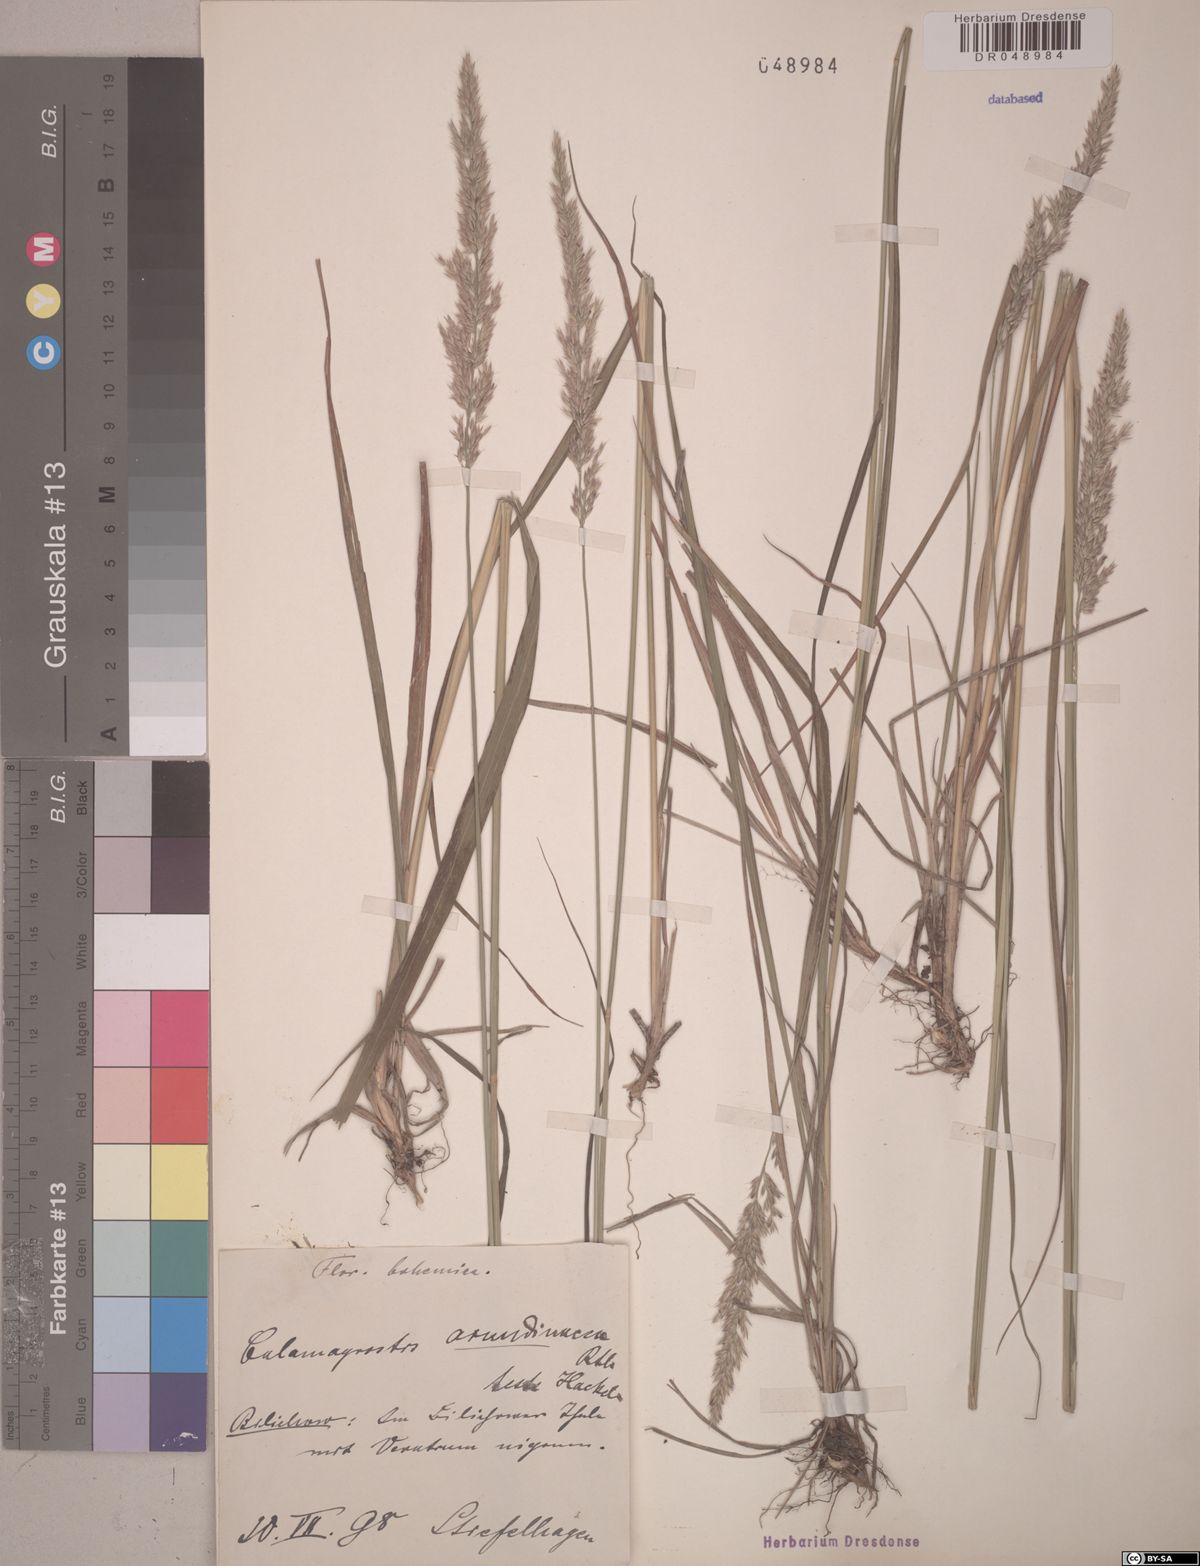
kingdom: Plantae
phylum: Tracheophyta
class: Liliopsida
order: Poales
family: Poaceae
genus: Calamagrostis
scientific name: Calamagrostis arundinacea
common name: Metskastik
